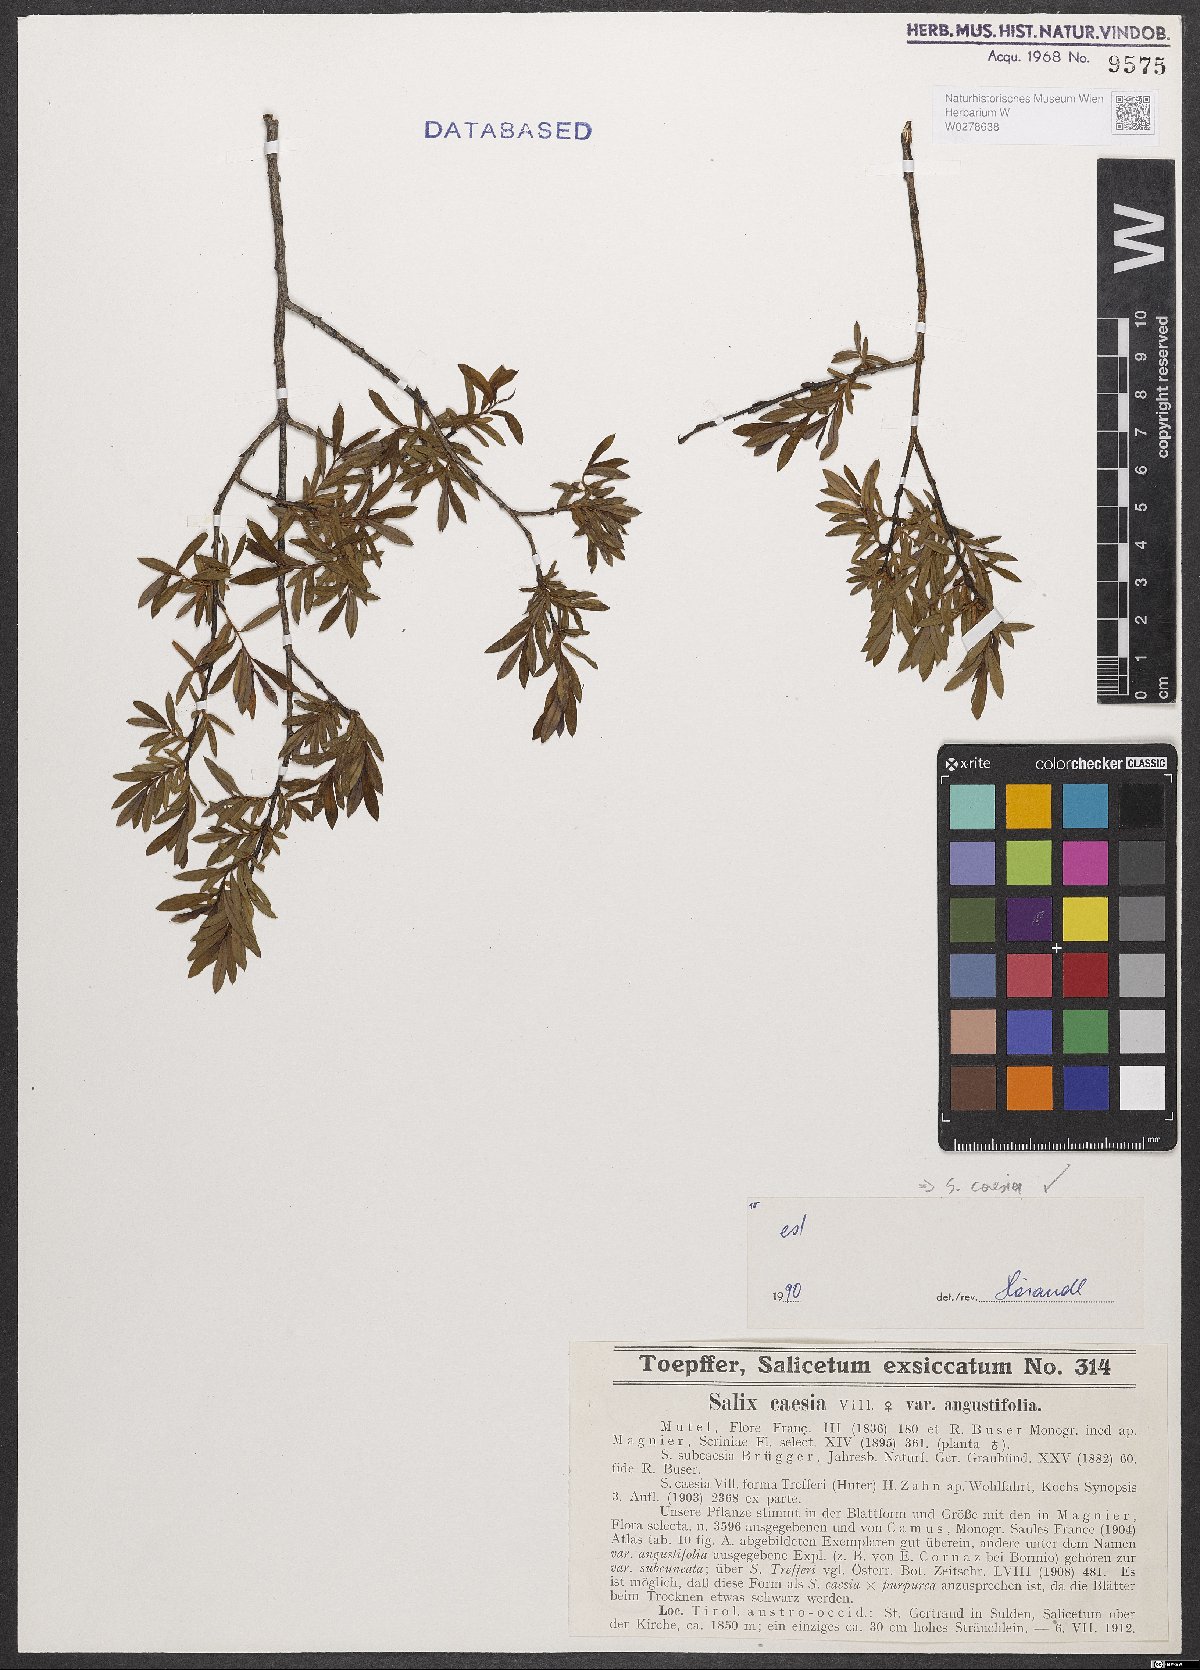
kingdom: Plantae
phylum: Tracheophyta
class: Magnoliopsida
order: Malpighiales
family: Salicaceae
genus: Salix
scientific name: Salix caesia
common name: Blue willow
